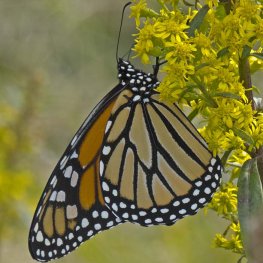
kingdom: Animalia
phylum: Arthropoda
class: Insecta
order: Lepidoptera
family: Nymphalidae
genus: Danaus
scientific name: Danaus plexippus
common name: Monarch
